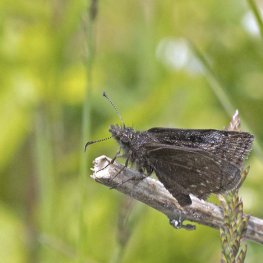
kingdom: Animalia
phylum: Arthropoda
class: Insecta
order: Lepidoptera
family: Hesperiidae
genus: Erynnis
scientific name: Erynnis icelus
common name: Dreamy Duskywing
